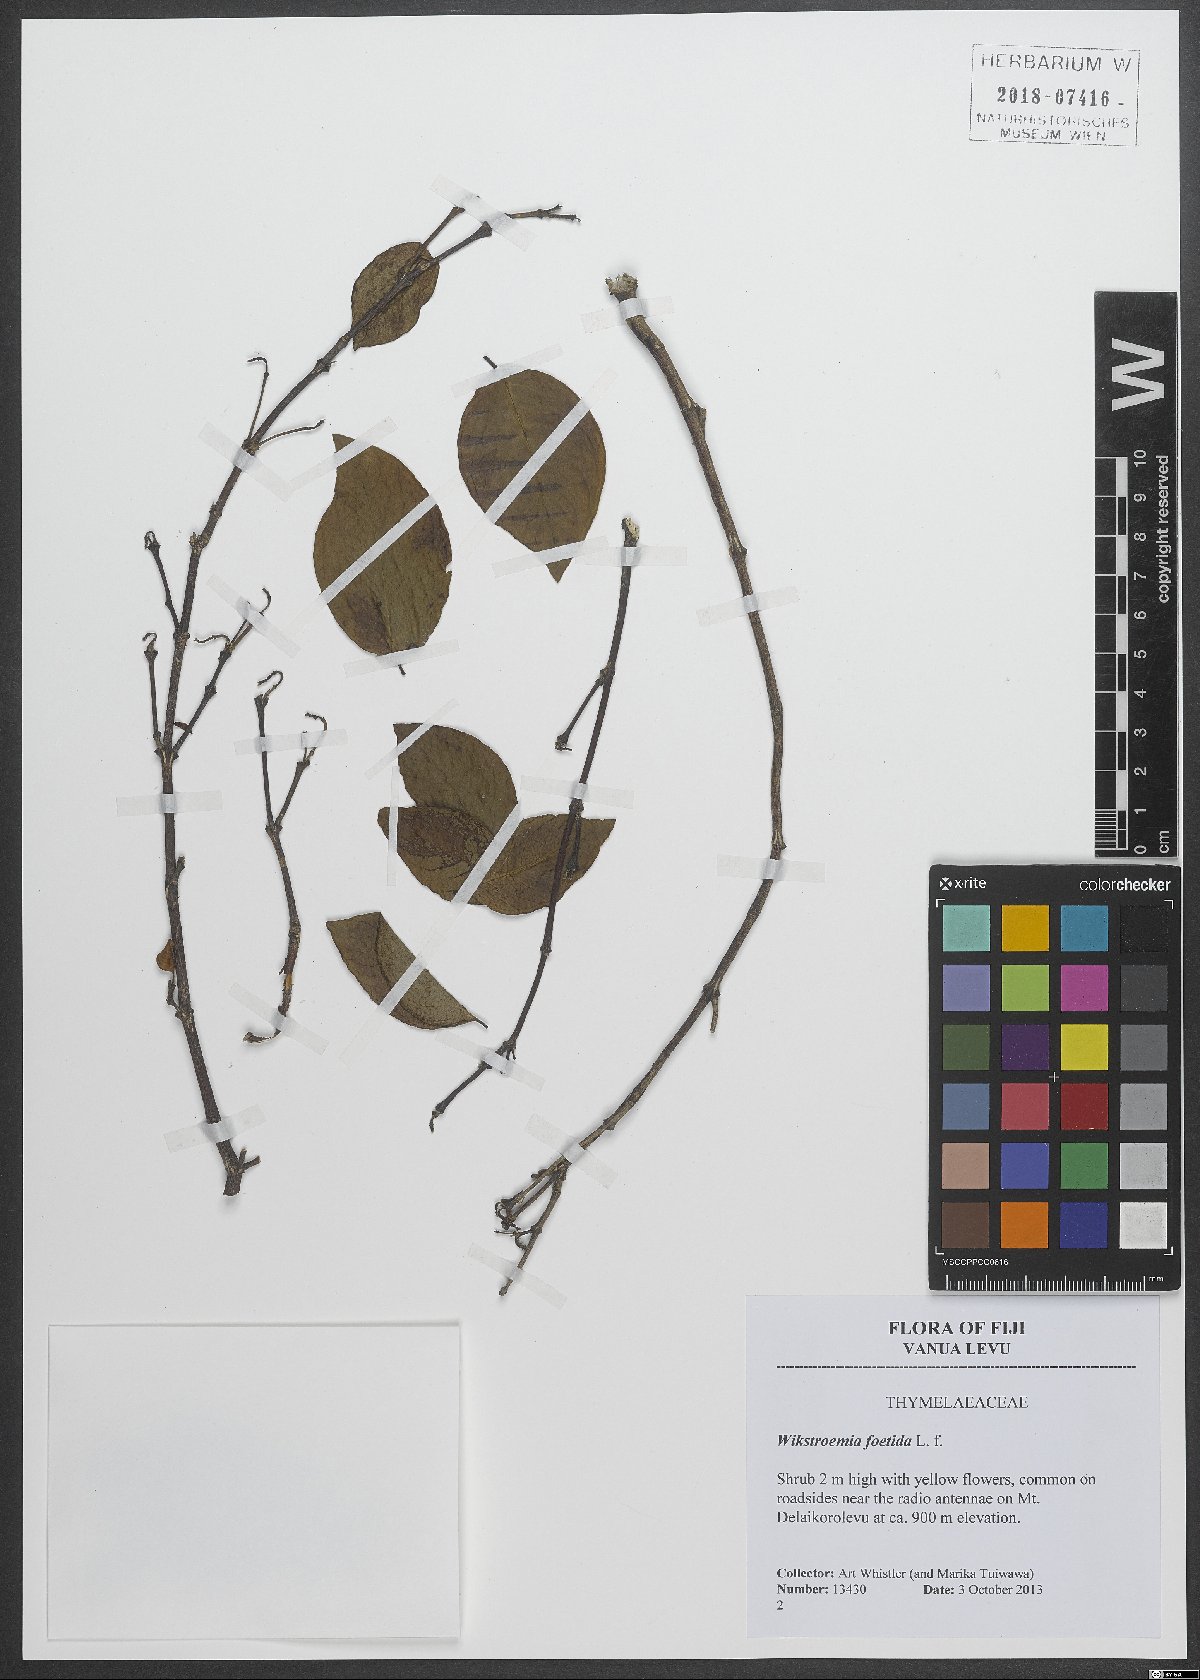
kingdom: Plantae
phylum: Tracheophyta
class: Magnoliopsida
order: Gentianales
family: Rubiaceae
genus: Ixora
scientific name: Ixora foetida
